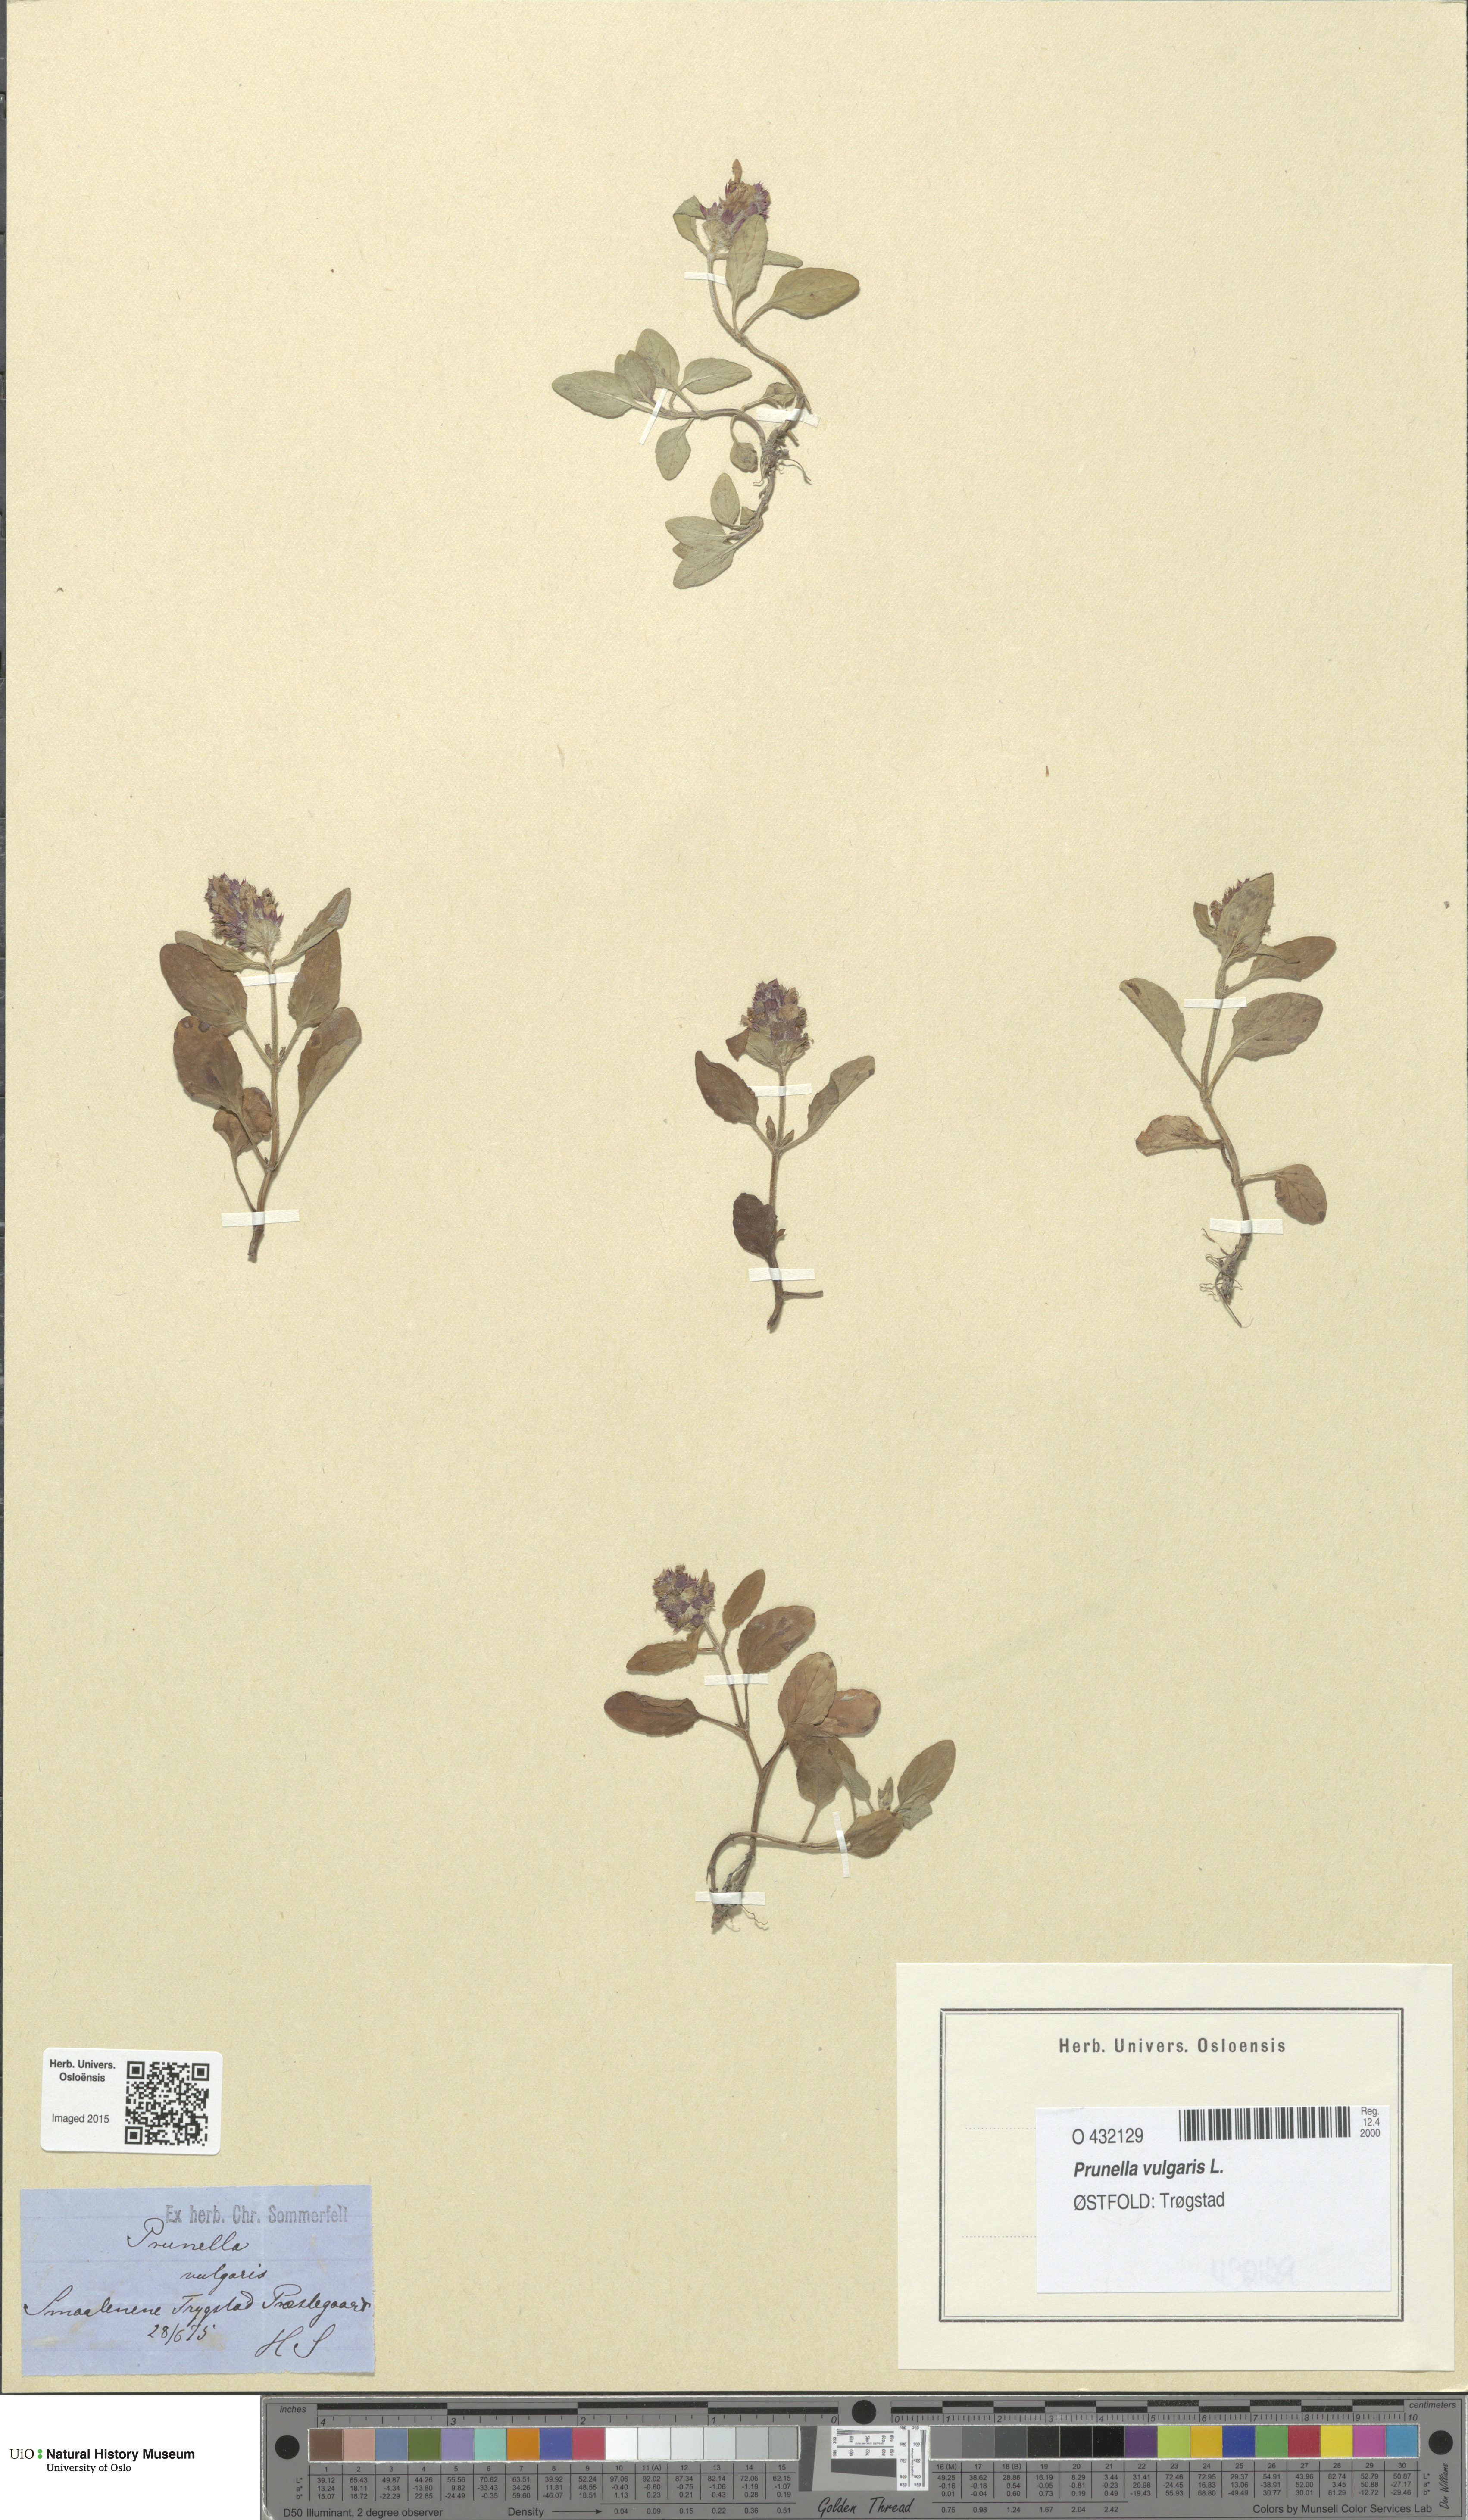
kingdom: Plantae
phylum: Tracheophyta
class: Magnoliopsida
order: Lamiales
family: Lamiaceae
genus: Prunella
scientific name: Prunella vulgaris
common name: Heal-all
